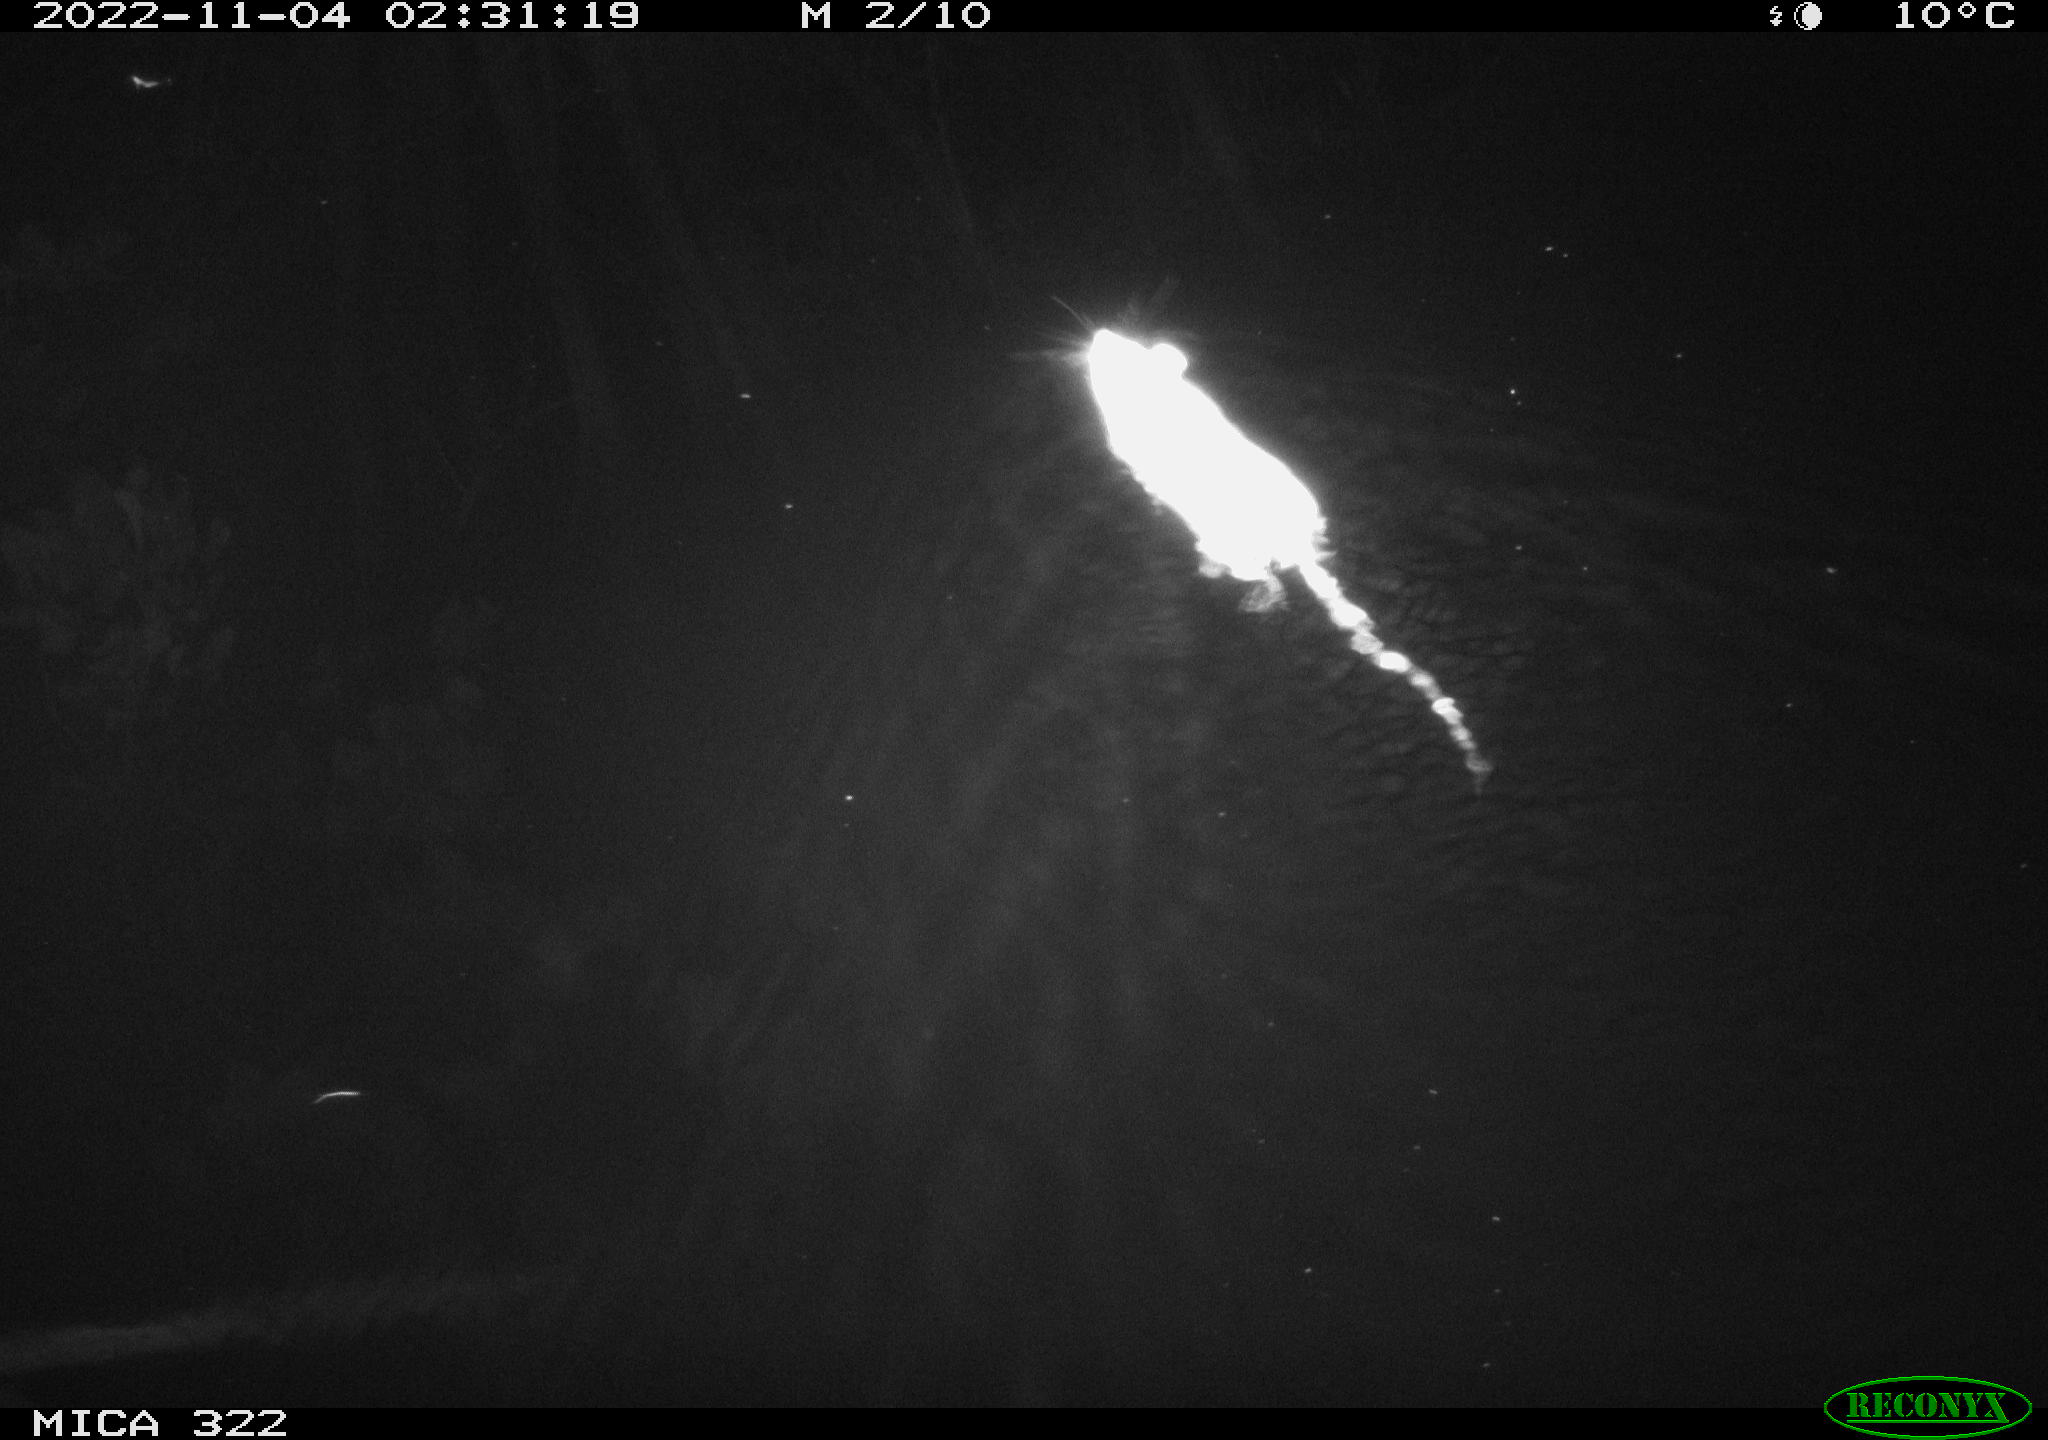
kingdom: Animalia
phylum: Chordata
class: Mammalia
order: Rodentia
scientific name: Rodentia
